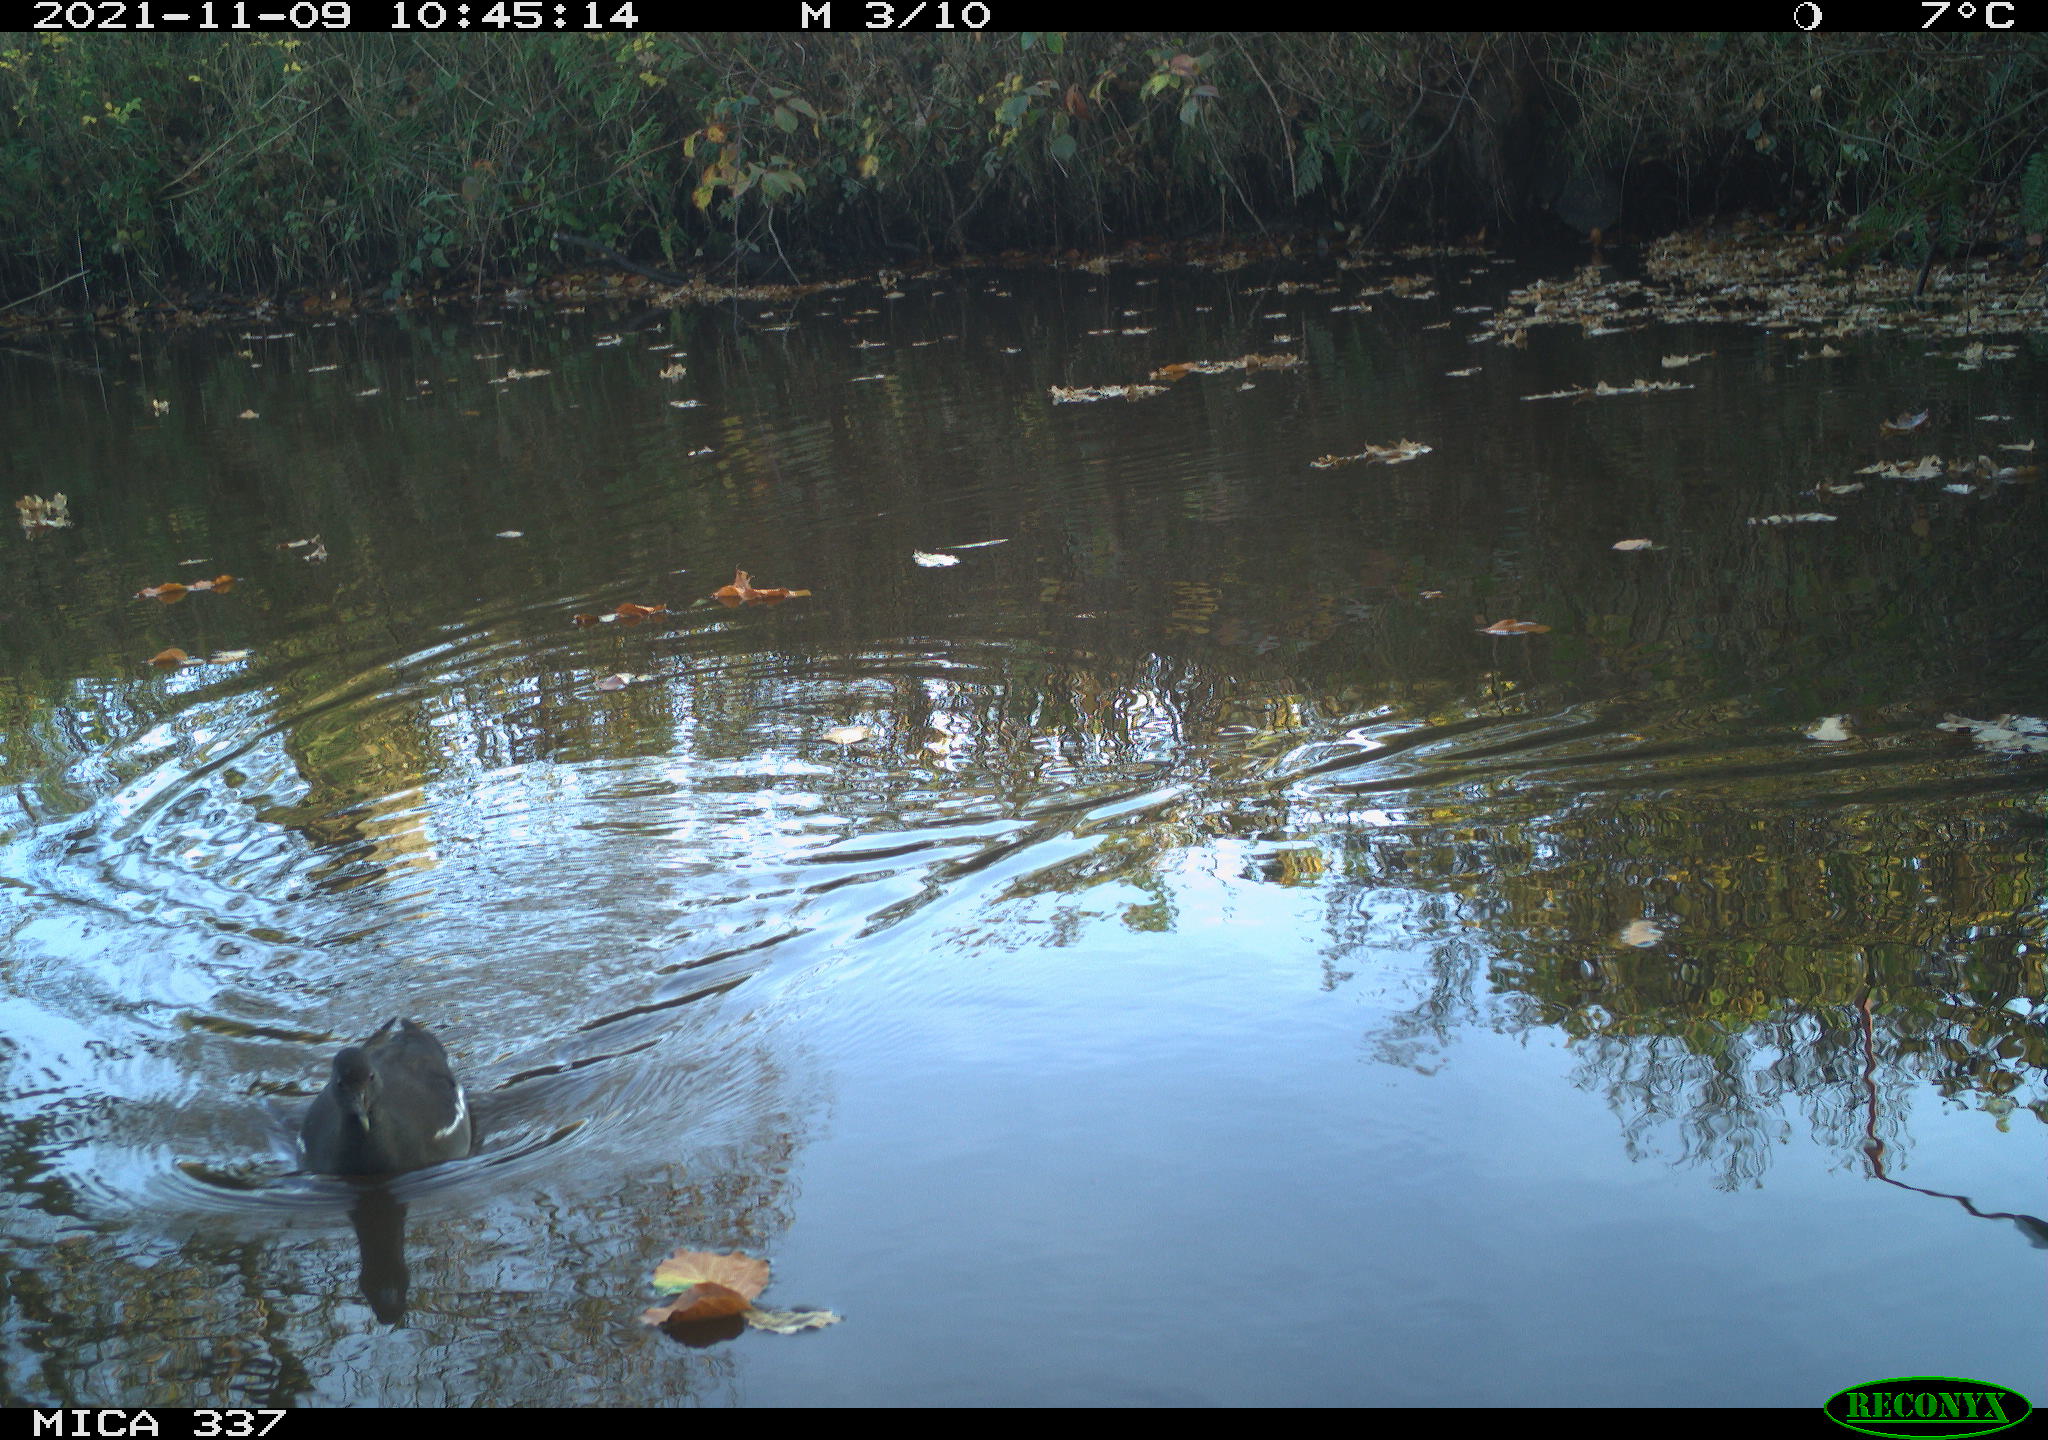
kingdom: Animalia
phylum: Chordata
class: Aves
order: Gruiformes
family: Rallidae
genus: Gallinula
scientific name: Gallinula chloropus
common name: Common moorhen
